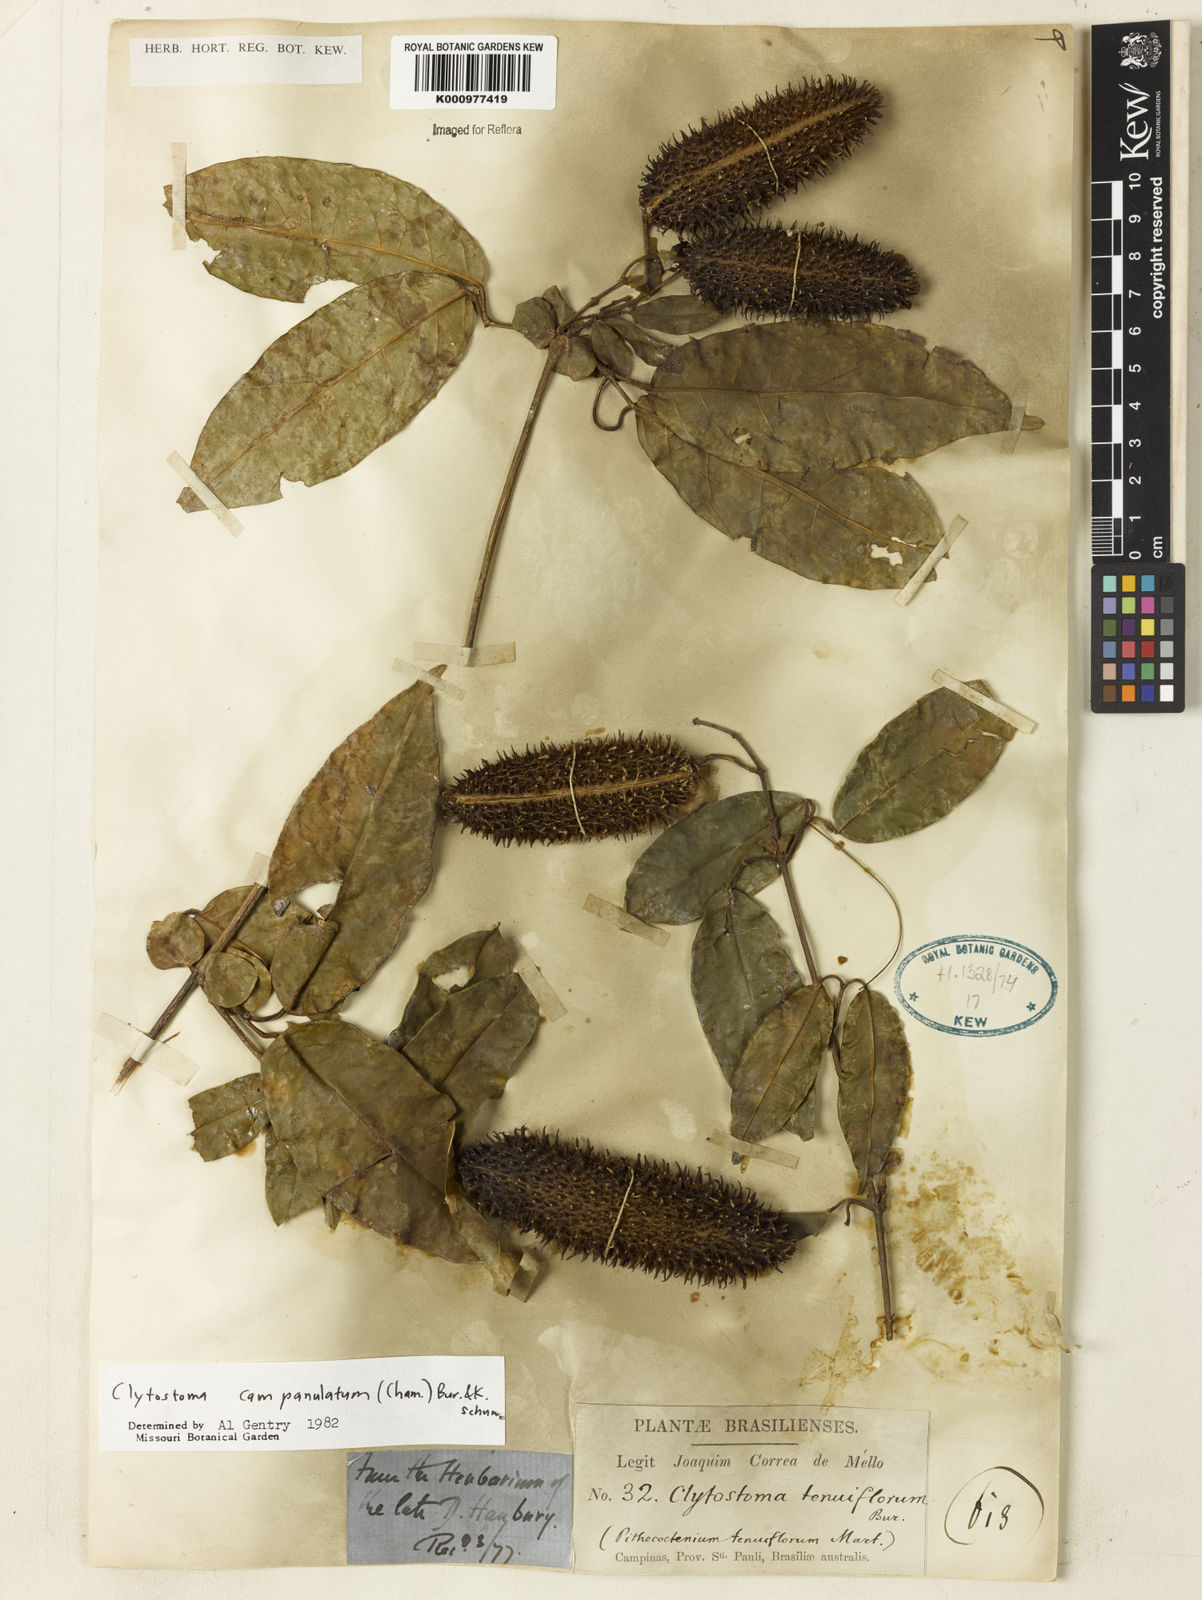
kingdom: Plantae
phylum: Tracheophyta
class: Magnoliopsida
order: Lamiales
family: Bignoniaceae
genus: Bignonia
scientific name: Bignonia campanulata
